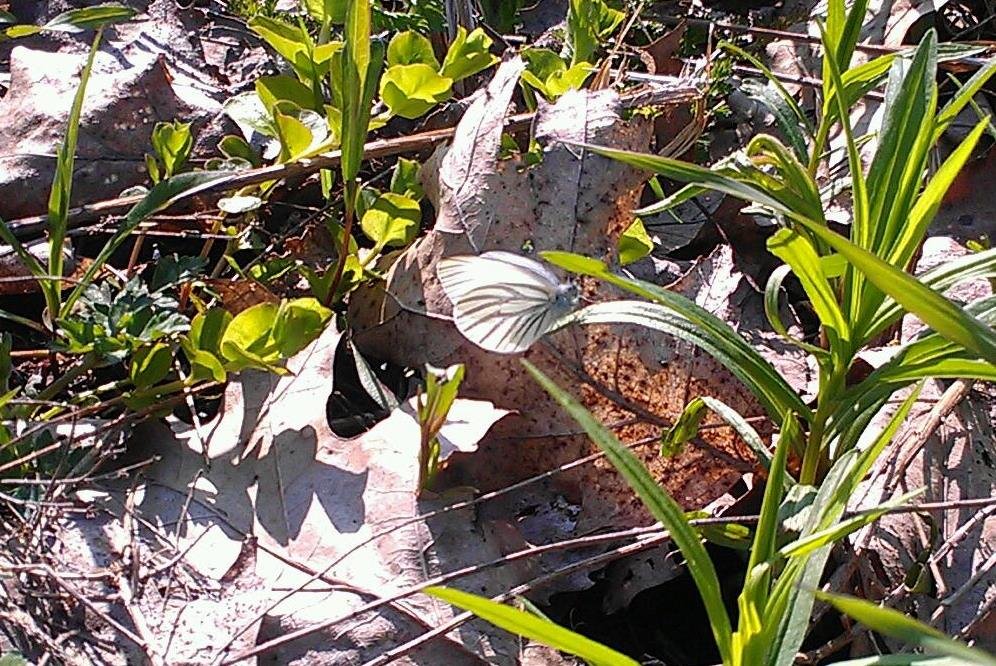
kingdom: Animalia
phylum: Arthropoda
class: Insecta
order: Lepidoptera
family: Pieridae
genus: Pieris
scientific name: Pieris oleracea
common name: Mustard White
